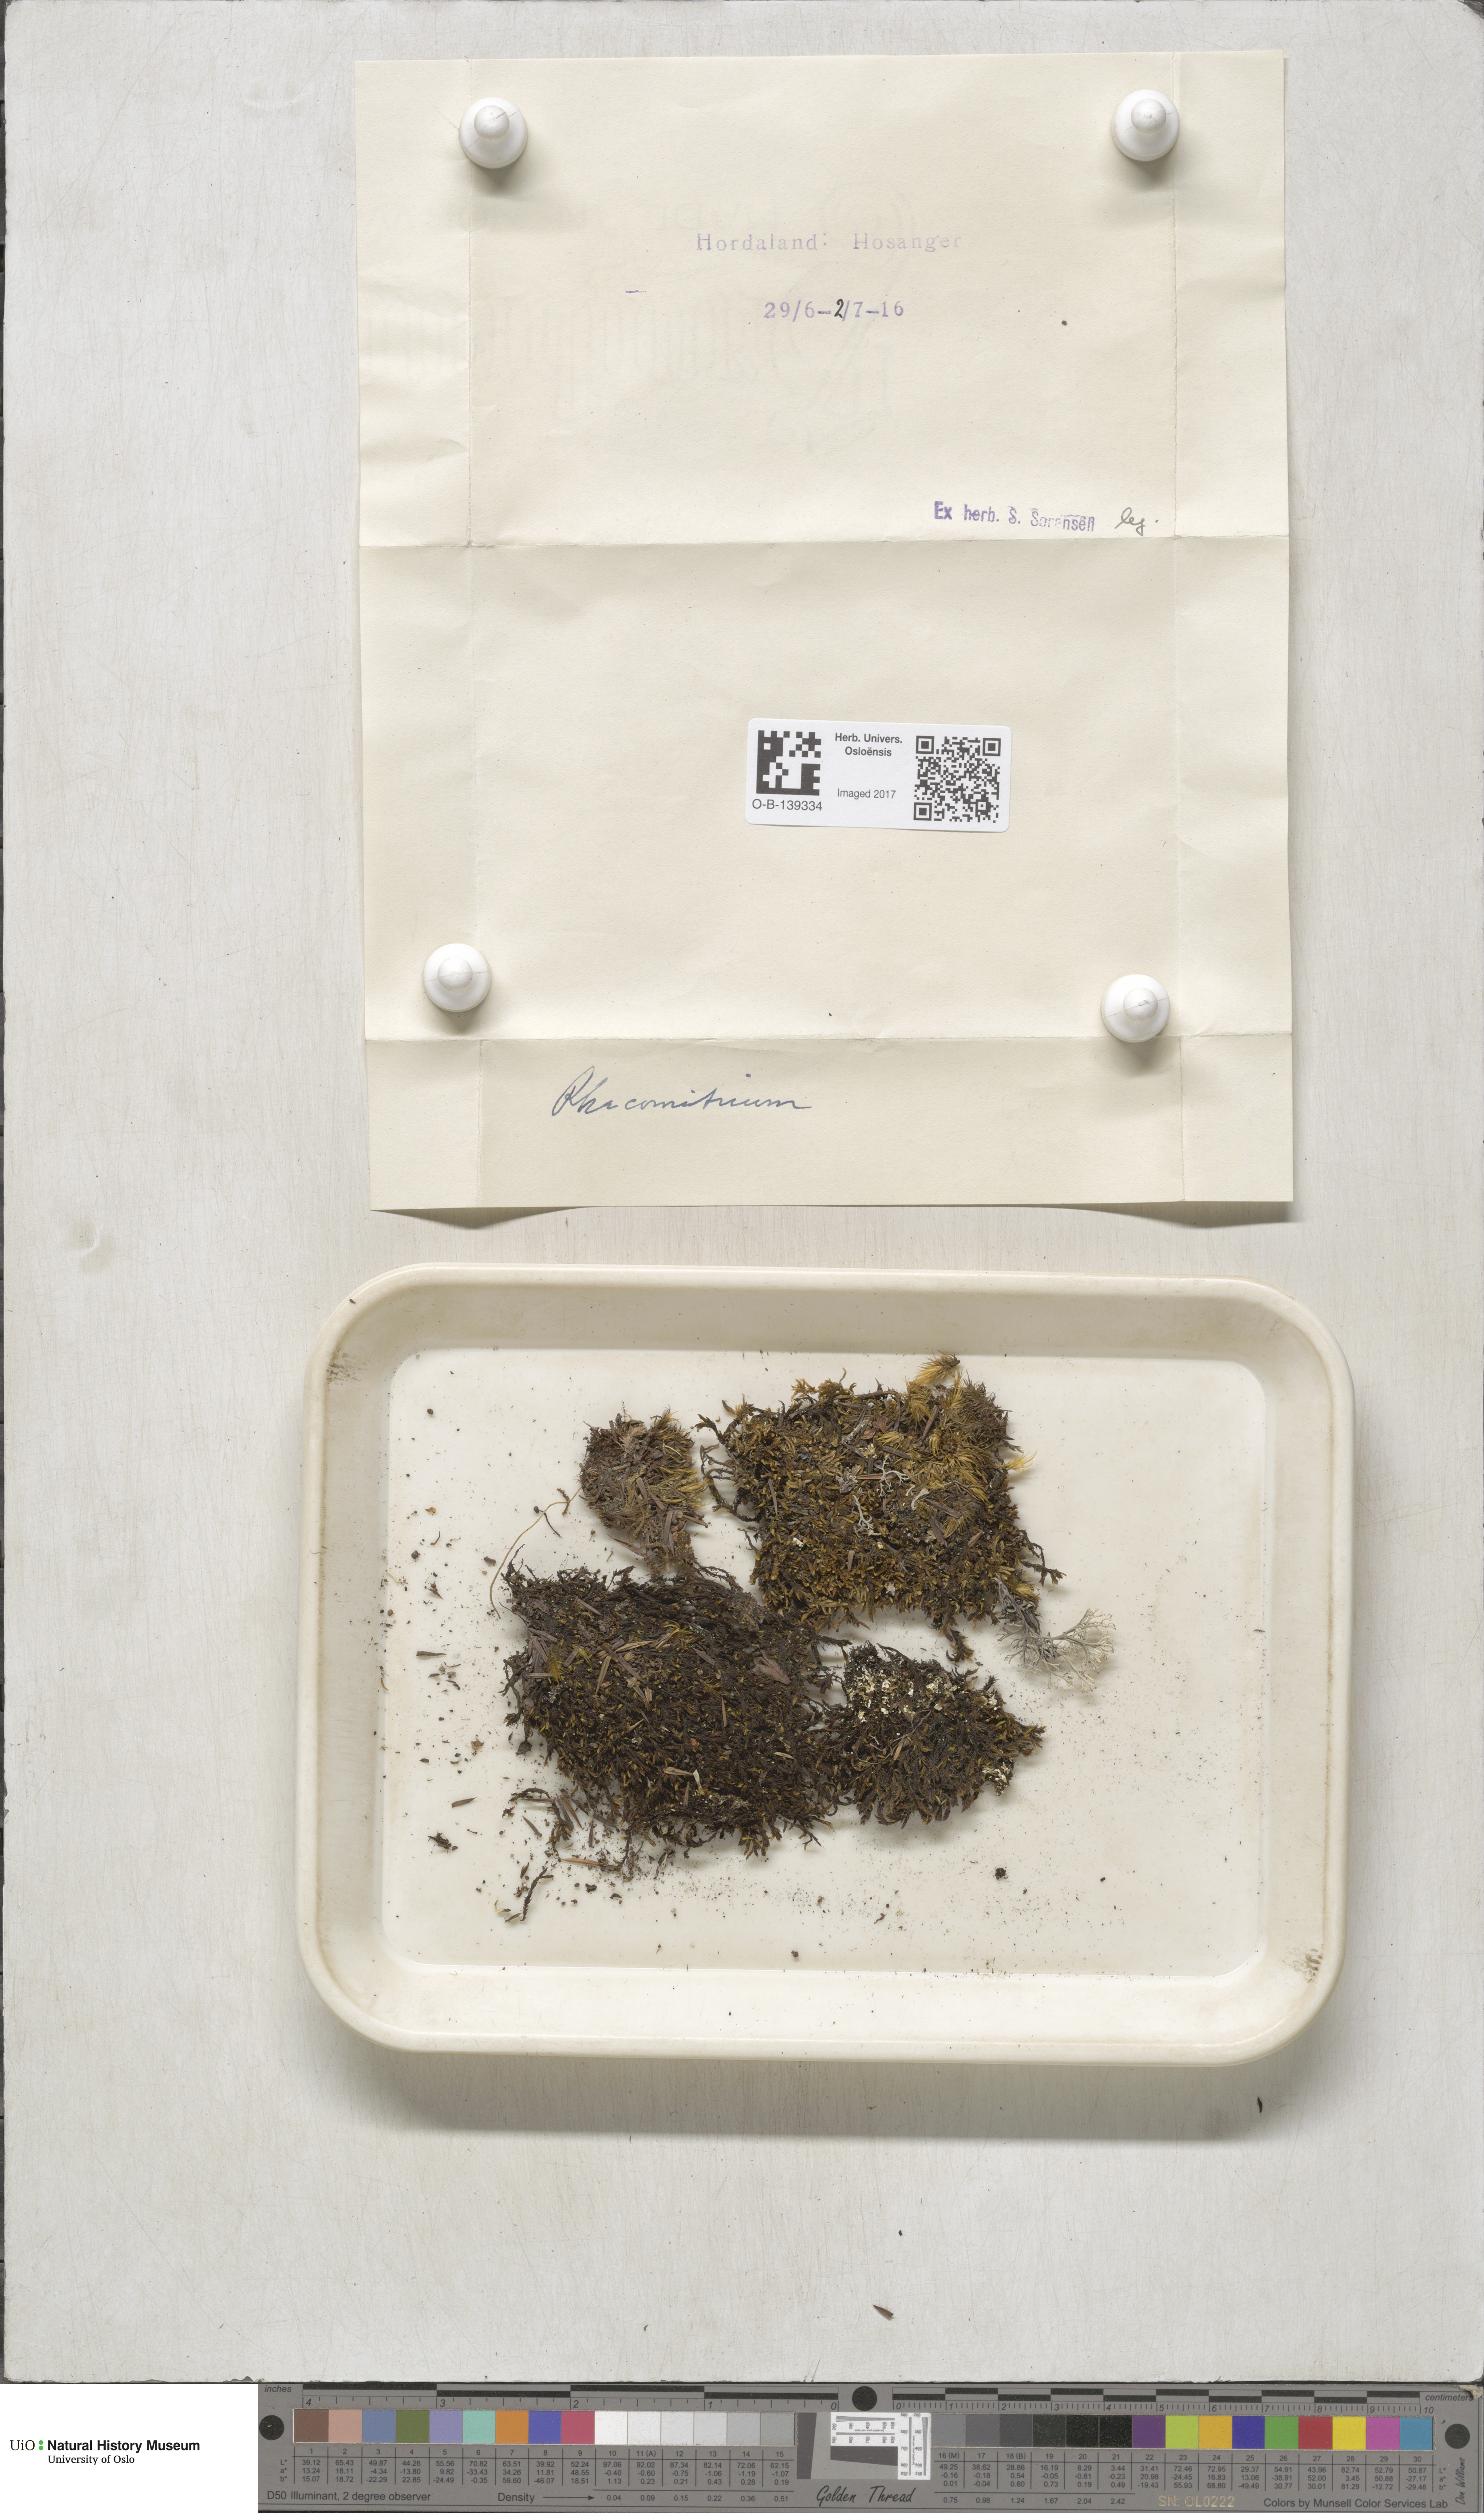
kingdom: Plantae
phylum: Bryophyta
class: Bryopsida
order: Grimmiales
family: Grimmiaceae
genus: Racomitrium
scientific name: Racomitrium
